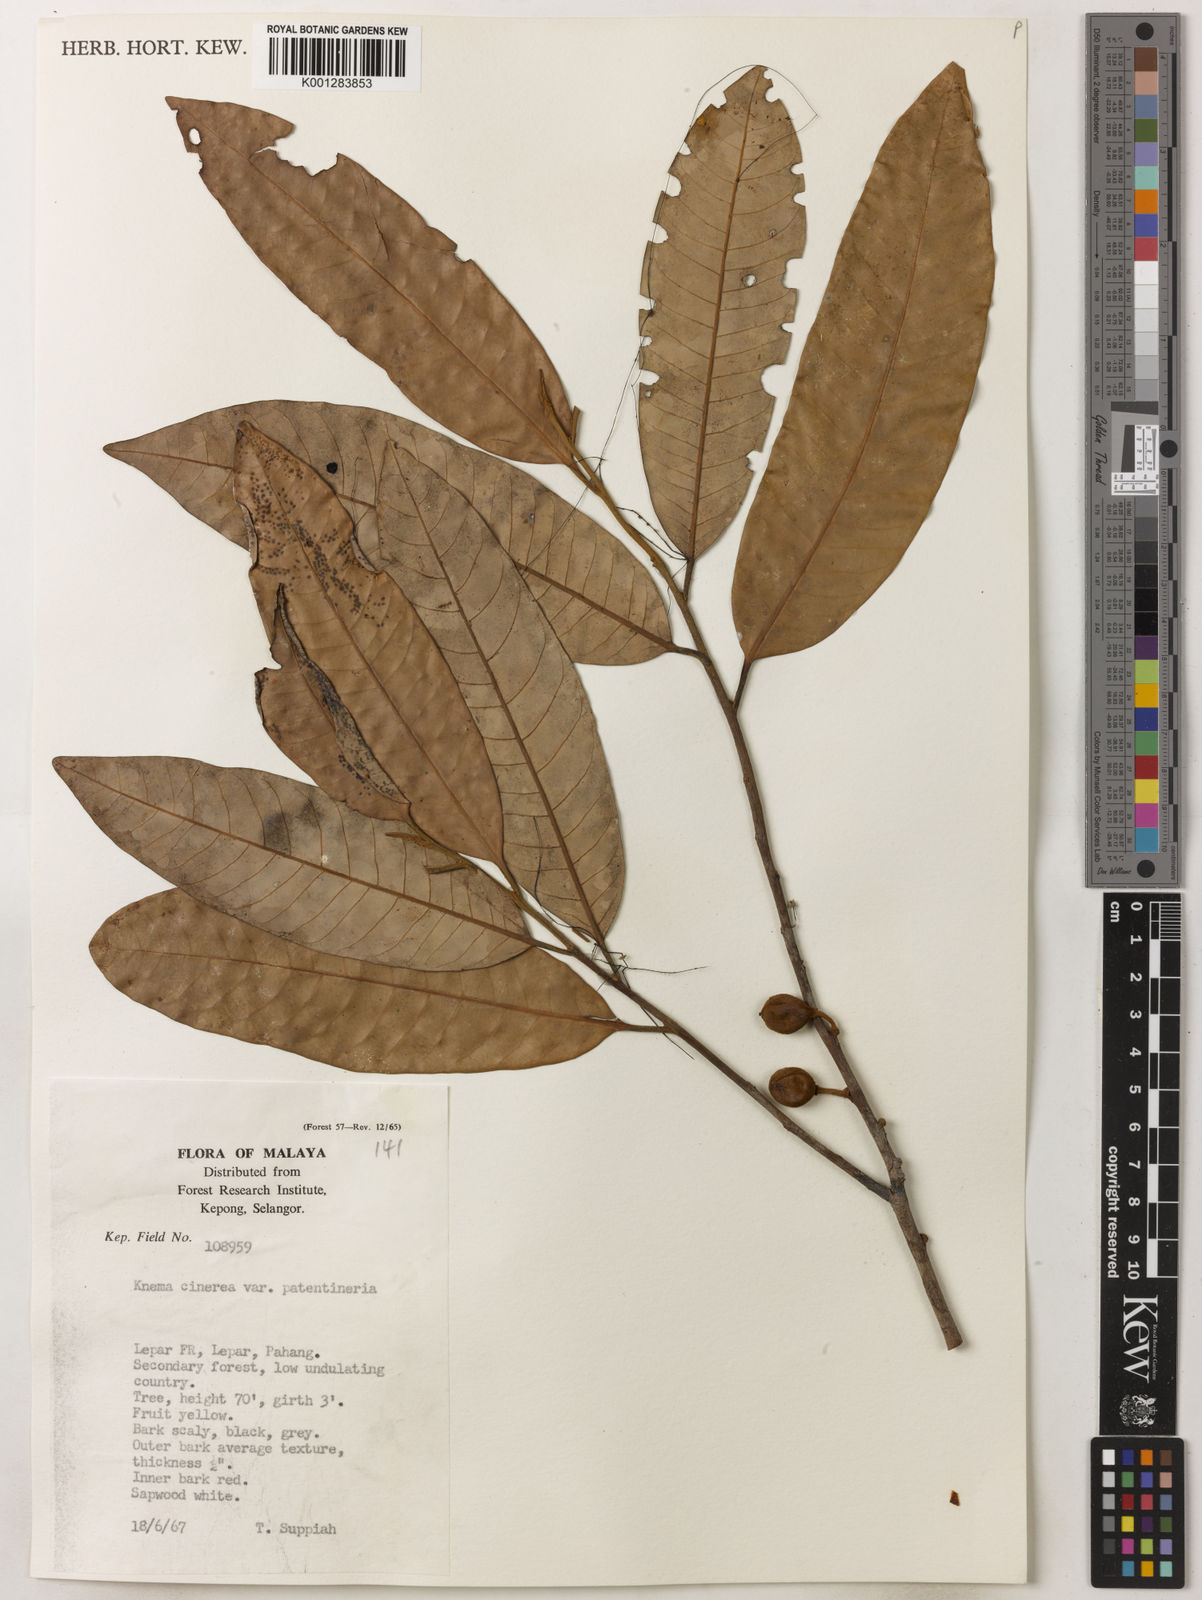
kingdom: Plantae
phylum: Tracheophyta
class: Magnoliopsida
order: Magnoliales
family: Myristicaceae
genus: Knema
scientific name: Knema
